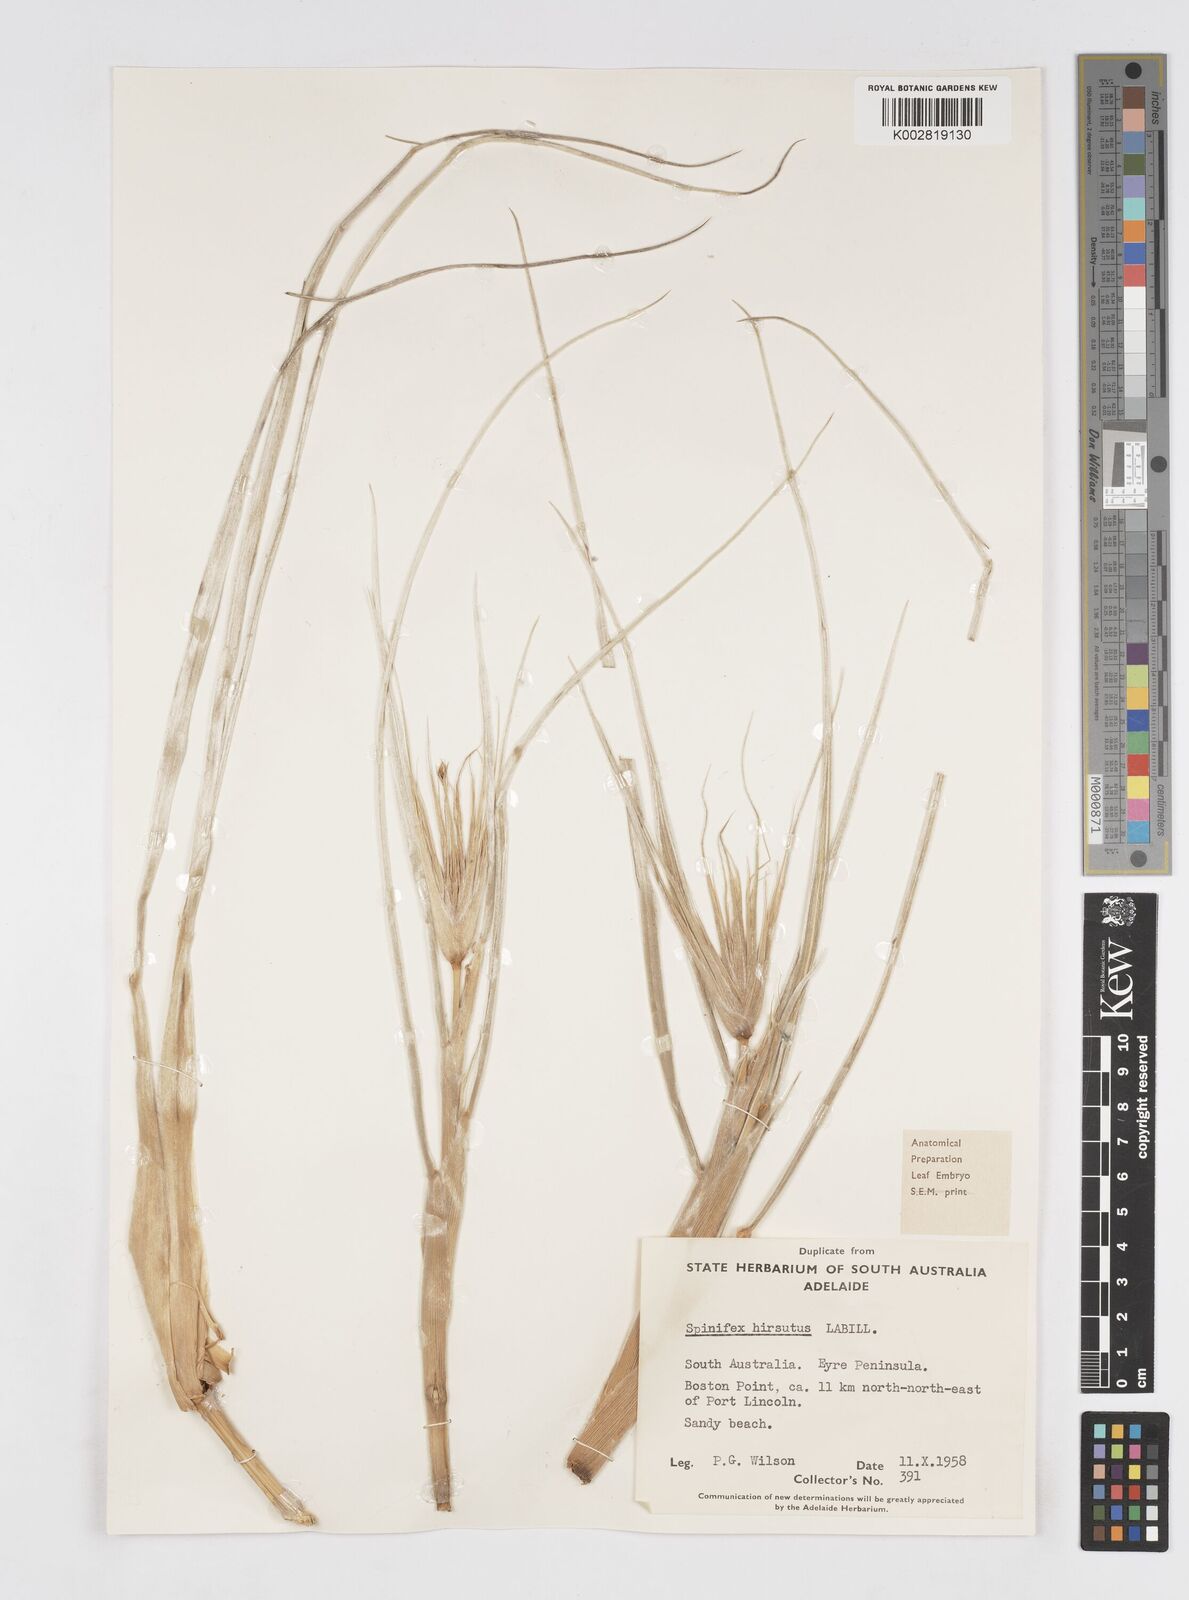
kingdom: Plantae
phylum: Tracheophyta
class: Liliopsida
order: Poales
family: Poaceae
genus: Spinifex
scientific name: Spinifex sericeus
